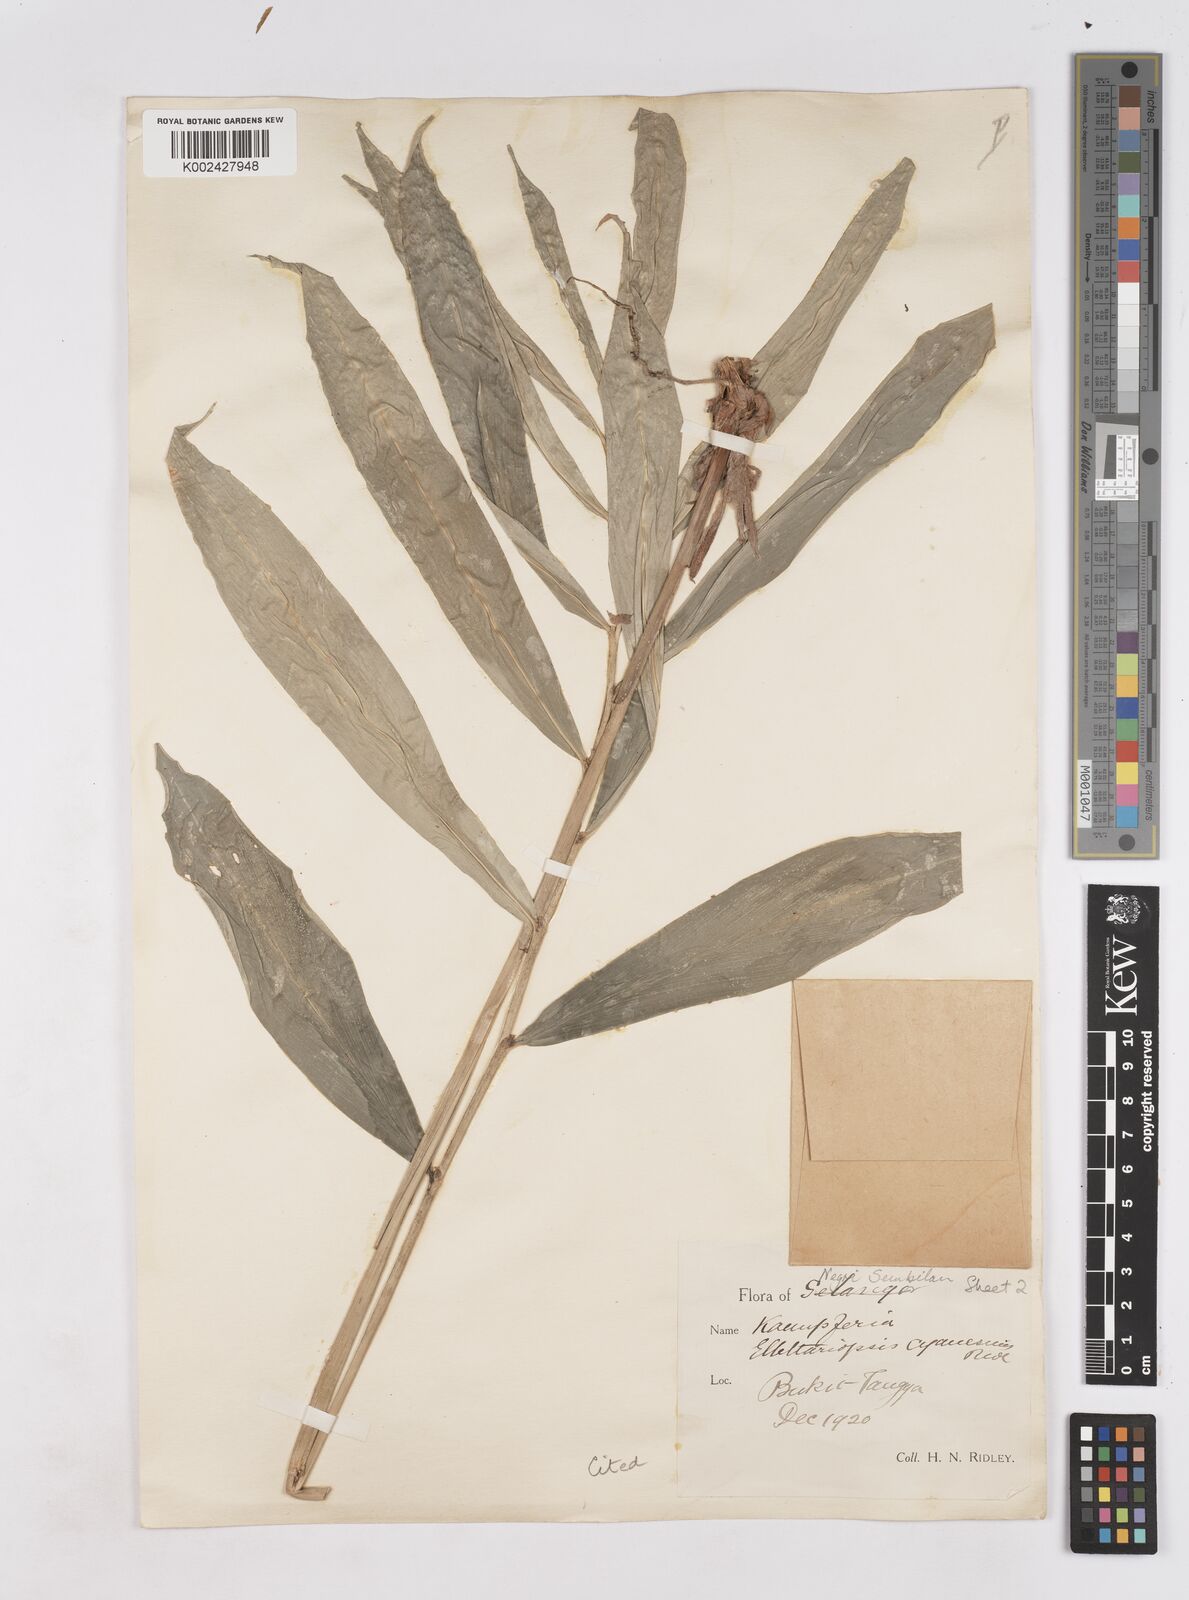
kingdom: Plantae
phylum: Tracheophyta
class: Liliopsida
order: Zingiberales
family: Zingiberaceae
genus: Haniffia
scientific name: Haniffia cyanescens
